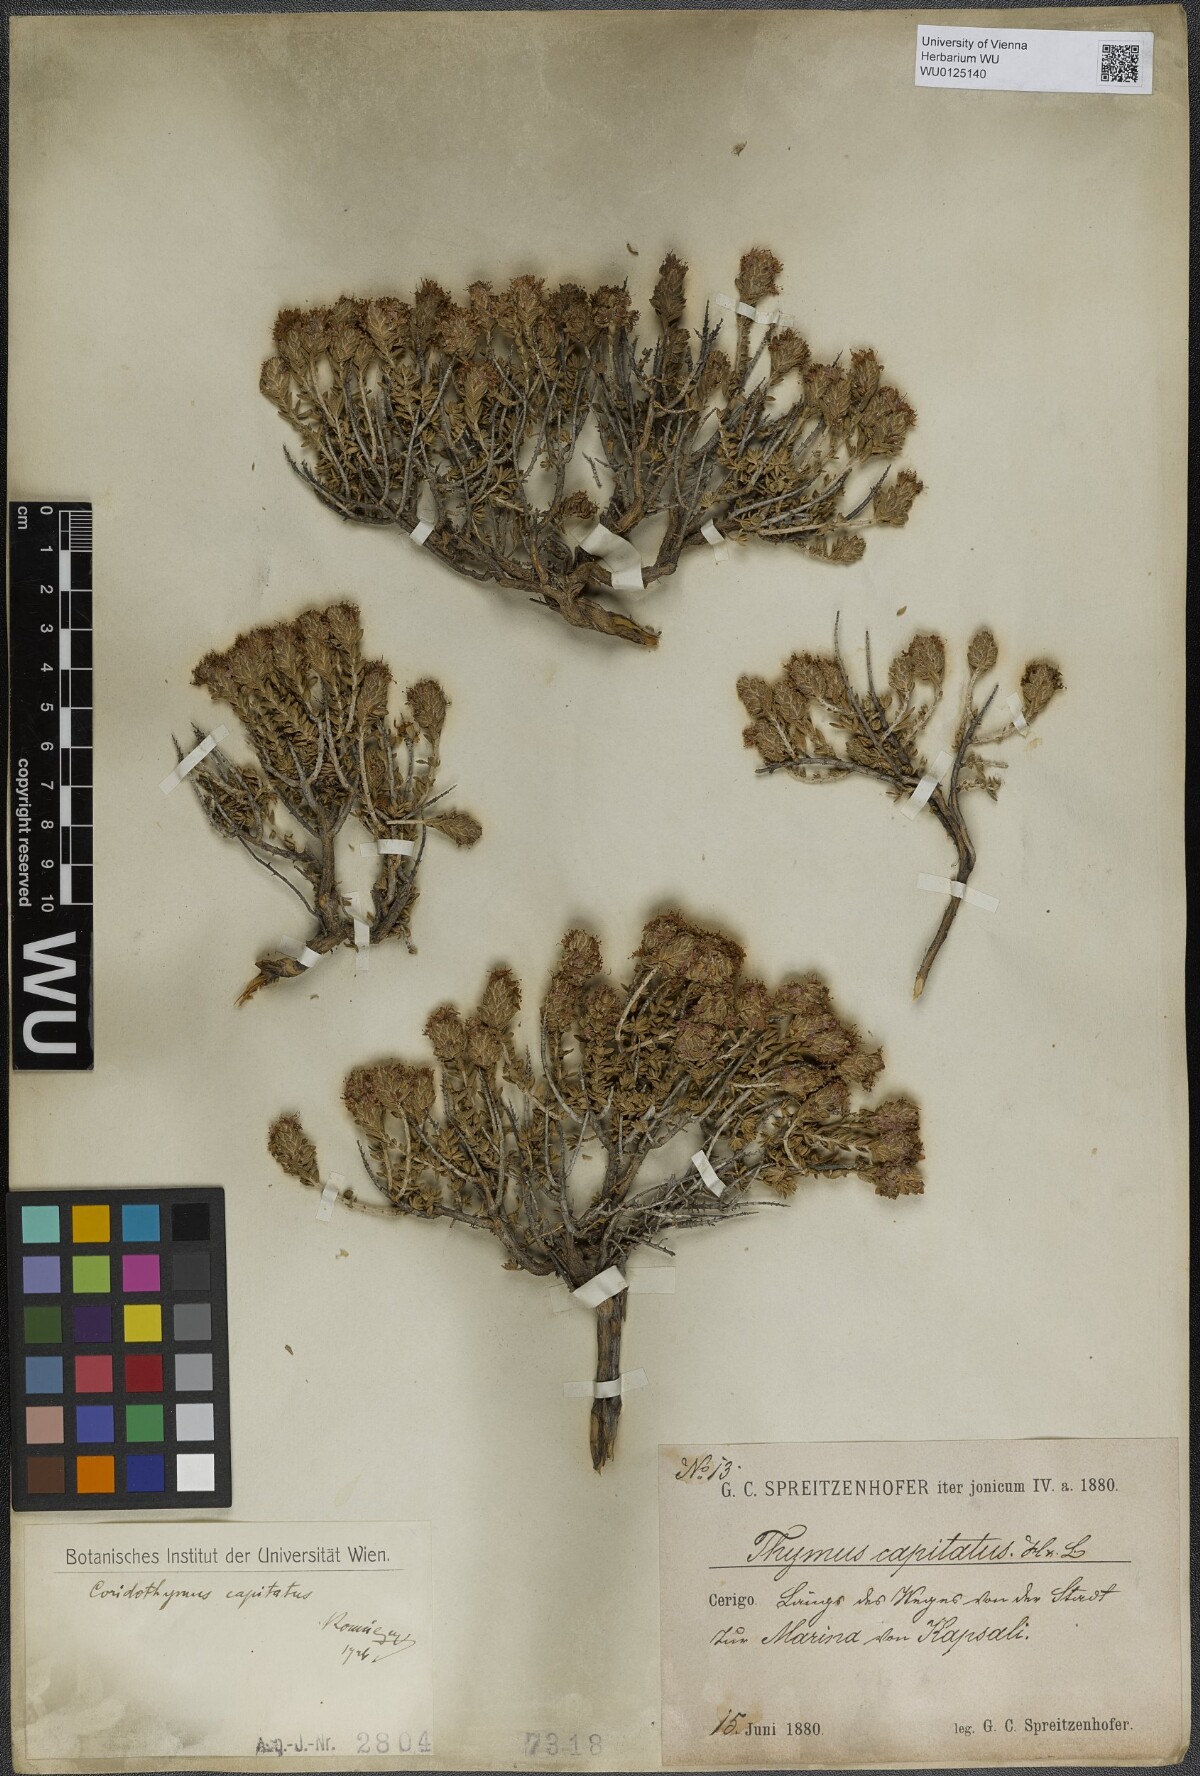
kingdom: Plantae
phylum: Tracheophyta
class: Magnoliopsida
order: Lamiales
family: Lamiaceae
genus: Thymbra
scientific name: Thymbra capitata
